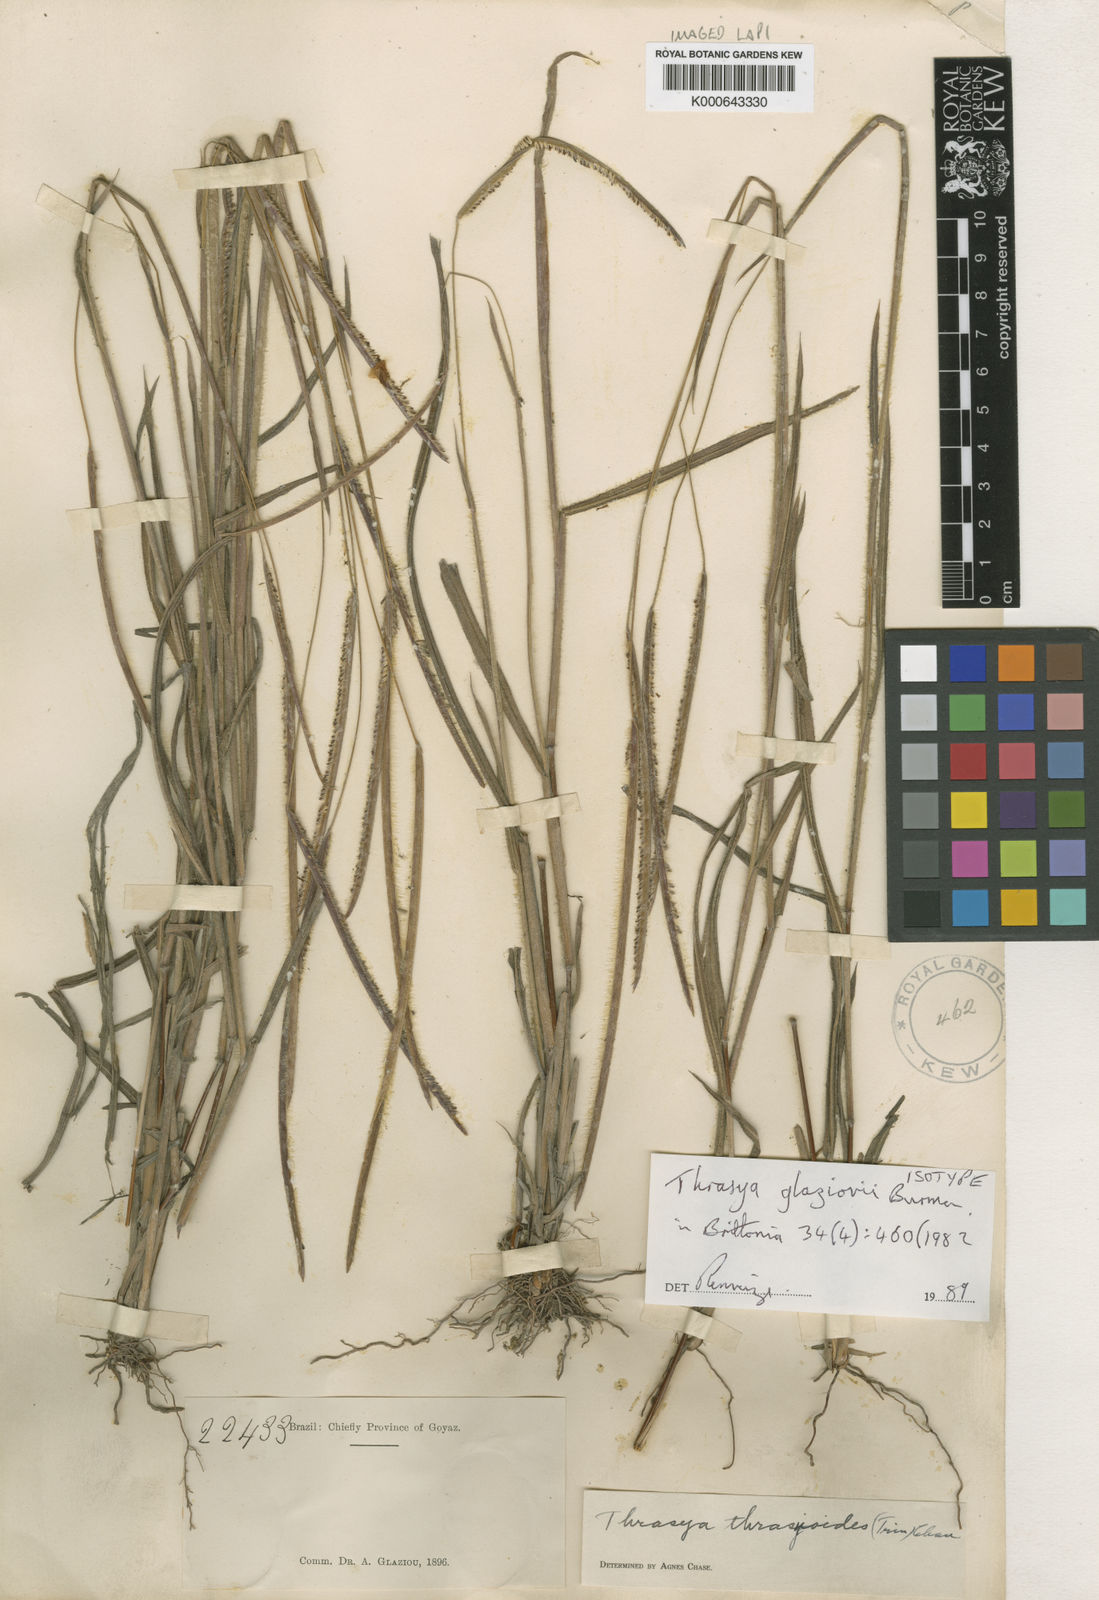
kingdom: Plantae
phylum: Tracheophyta
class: Liliopsida
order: Poales
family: Poaceae
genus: Paspalum
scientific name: Paspalum glaziovii
